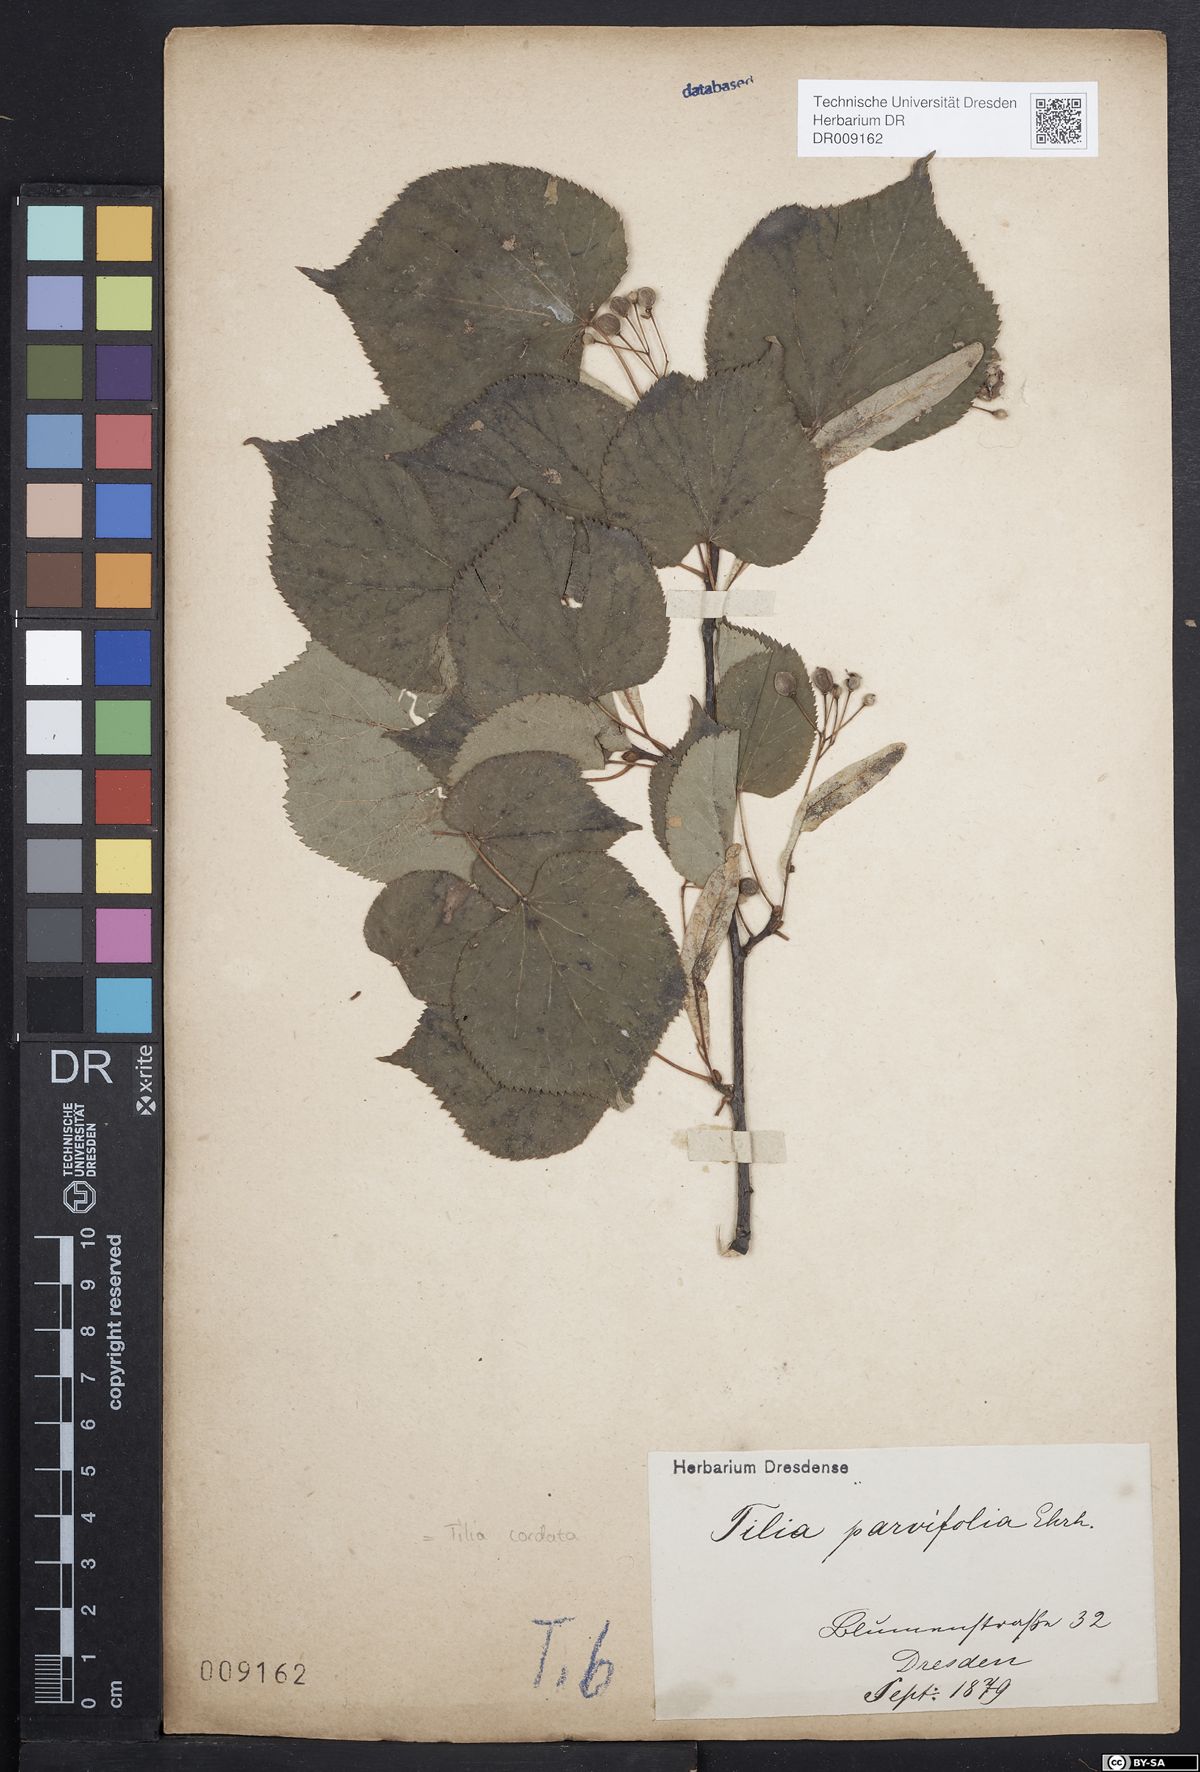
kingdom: Plantae
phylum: Tracheophyta
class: Magnoliopsida
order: Malvales
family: Malvaceae
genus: Tilia
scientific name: Tilia cordata
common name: Small-leaved lime
